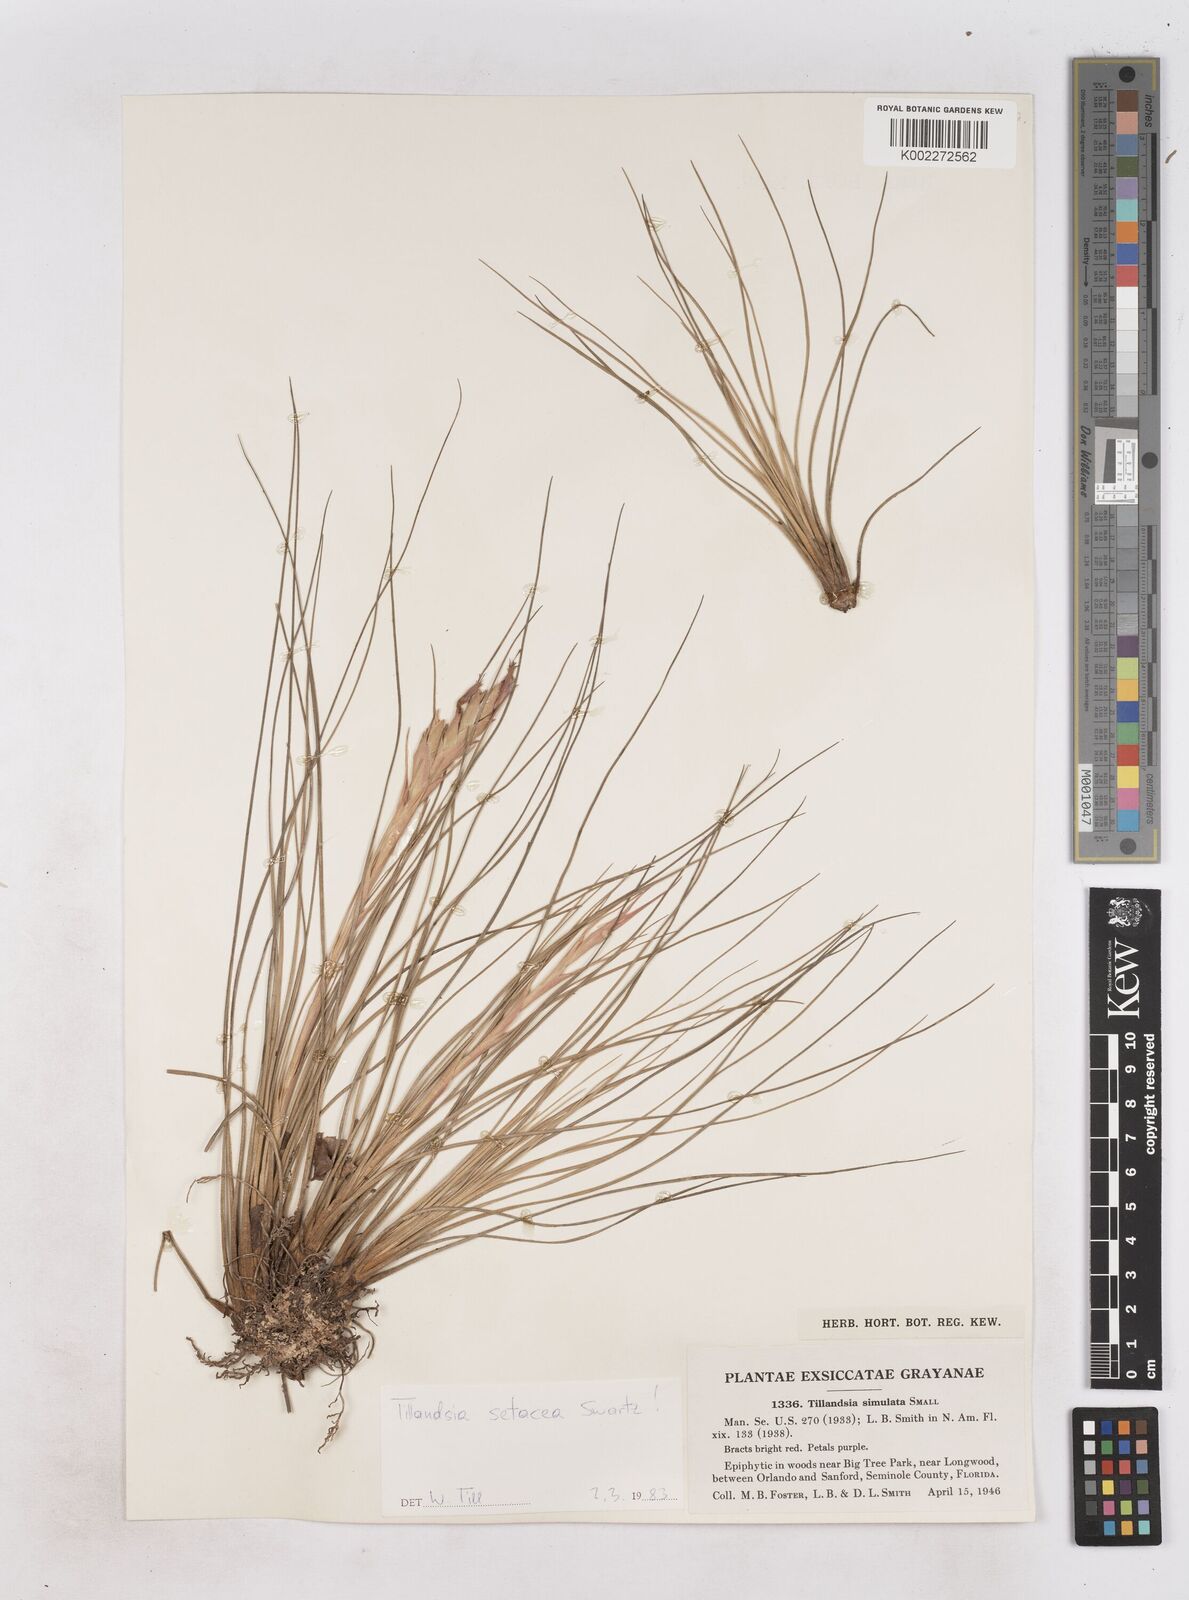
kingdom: Plantae
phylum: Tracheophyta
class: Liliopsida
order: Poales
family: Bromeliaceae
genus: Tillandsia
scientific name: Tillandsia setacea
